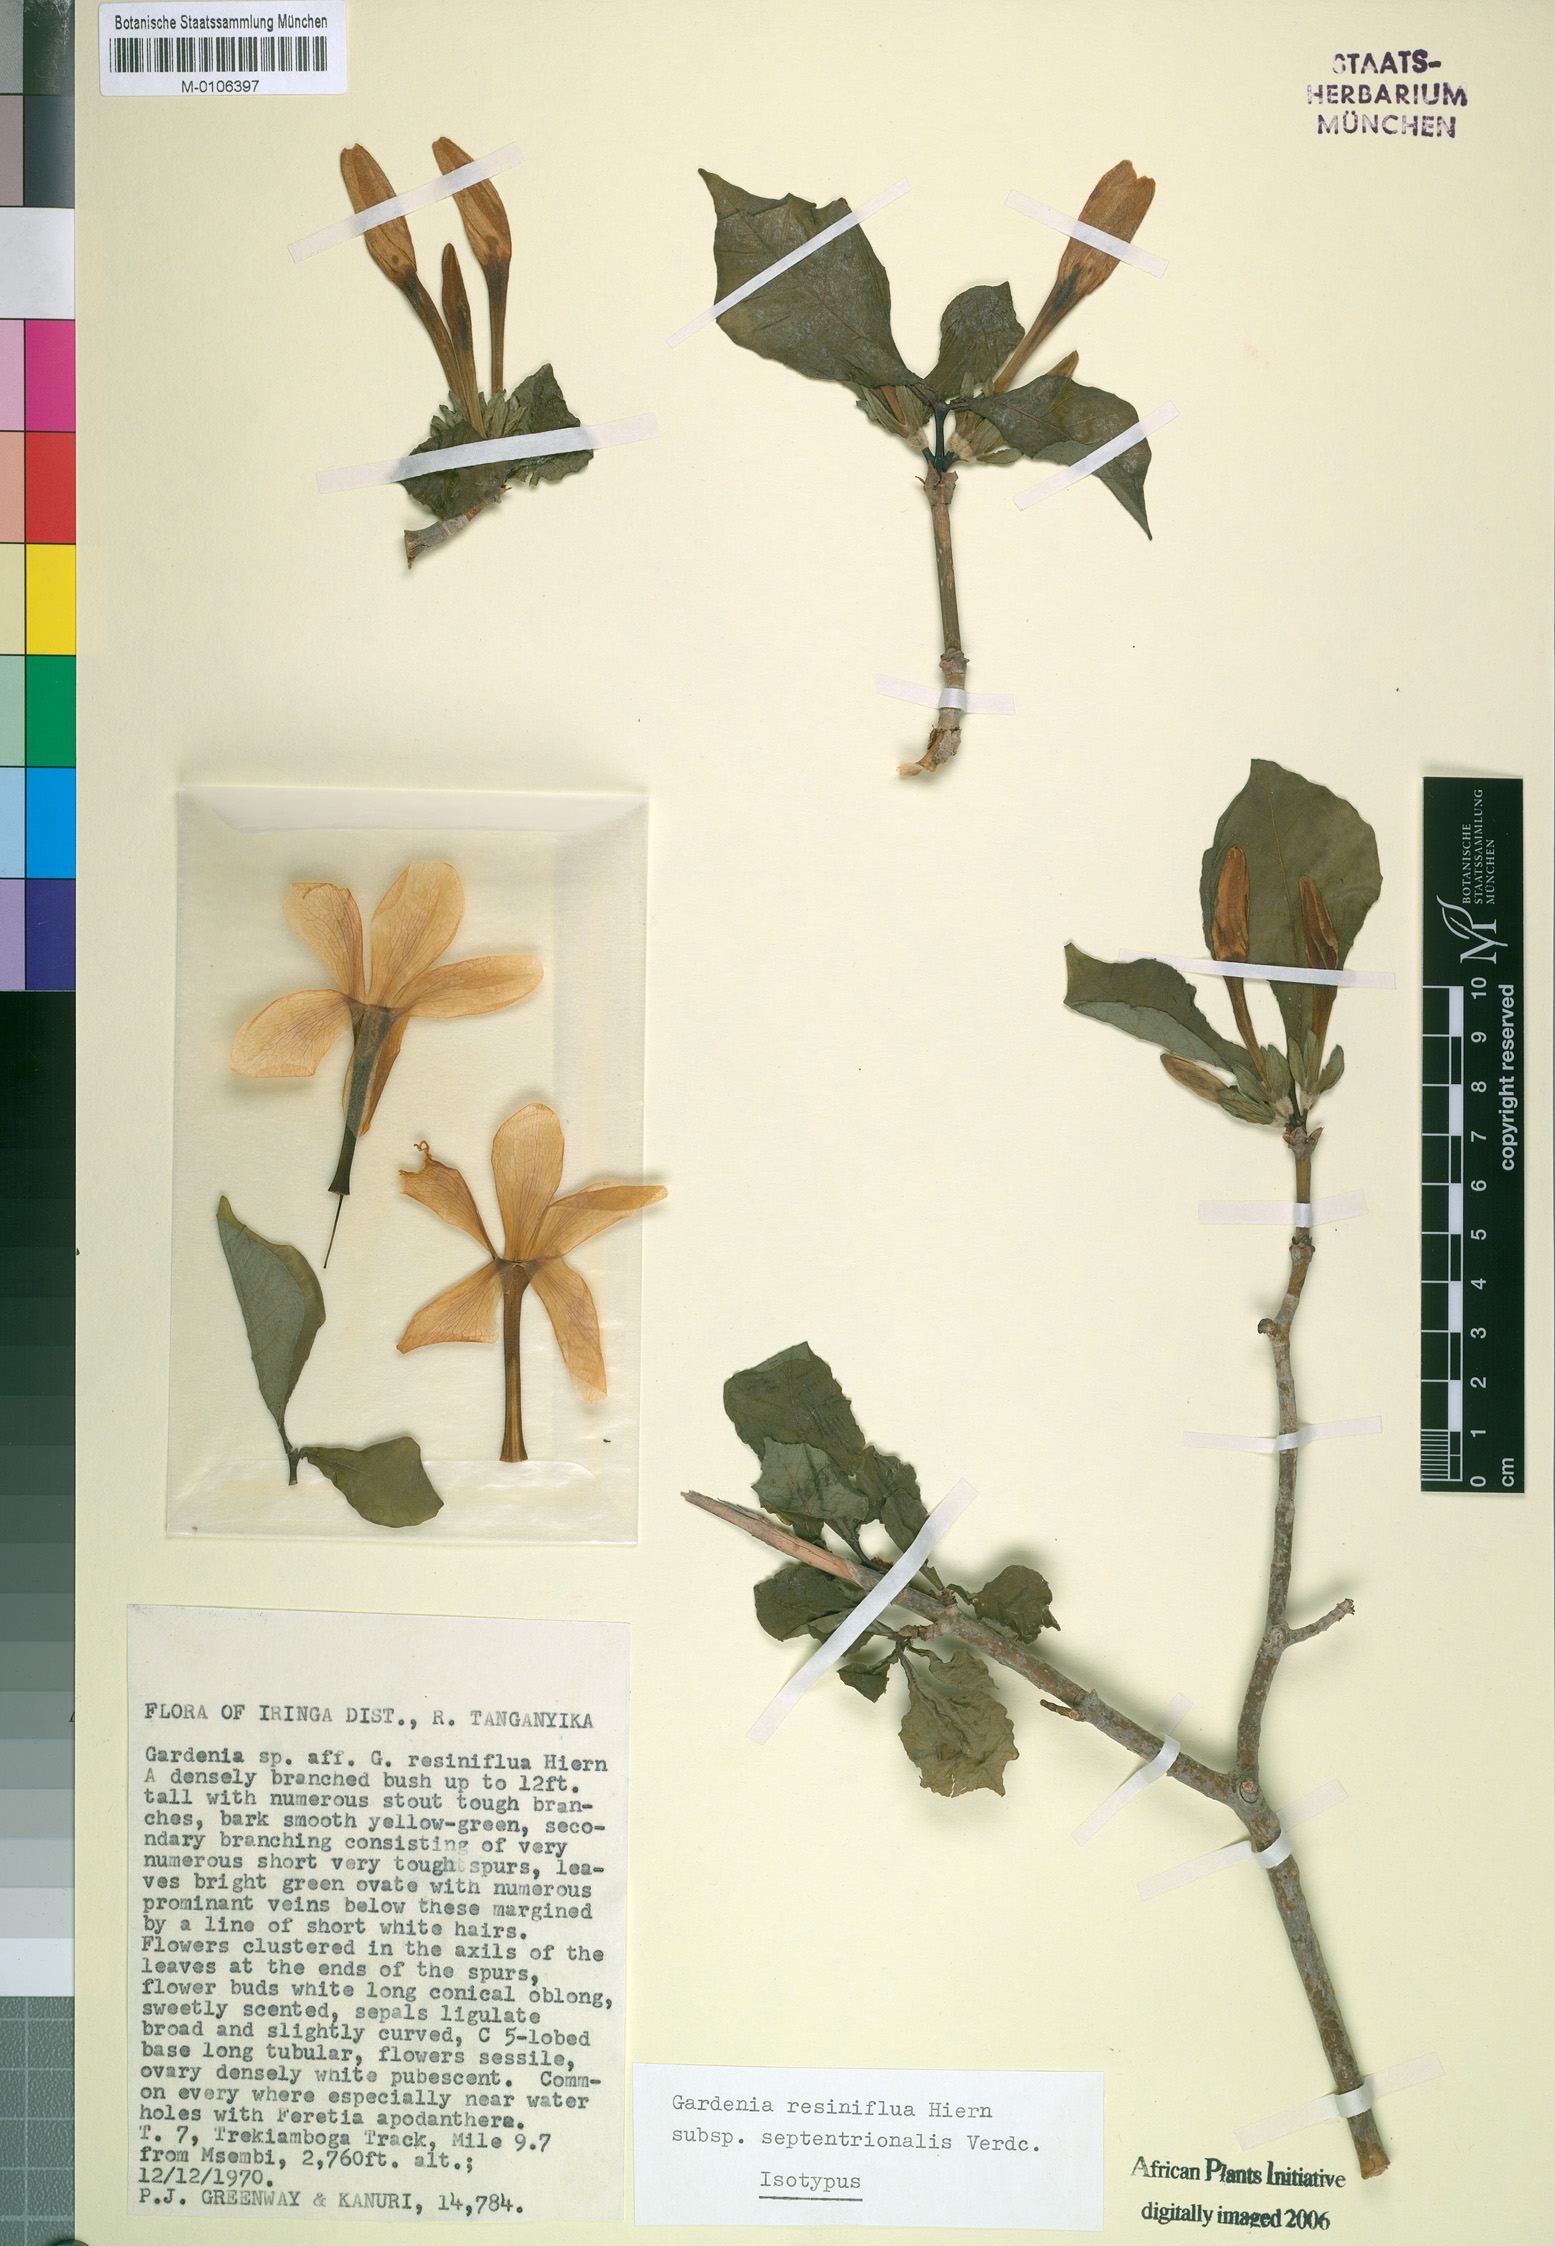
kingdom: Plantae
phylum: Tracheophyta
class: Magnoliopsida
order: Gentianales
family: Rubiaceae
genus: Gardenia
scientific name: Gardenia resiniflua
